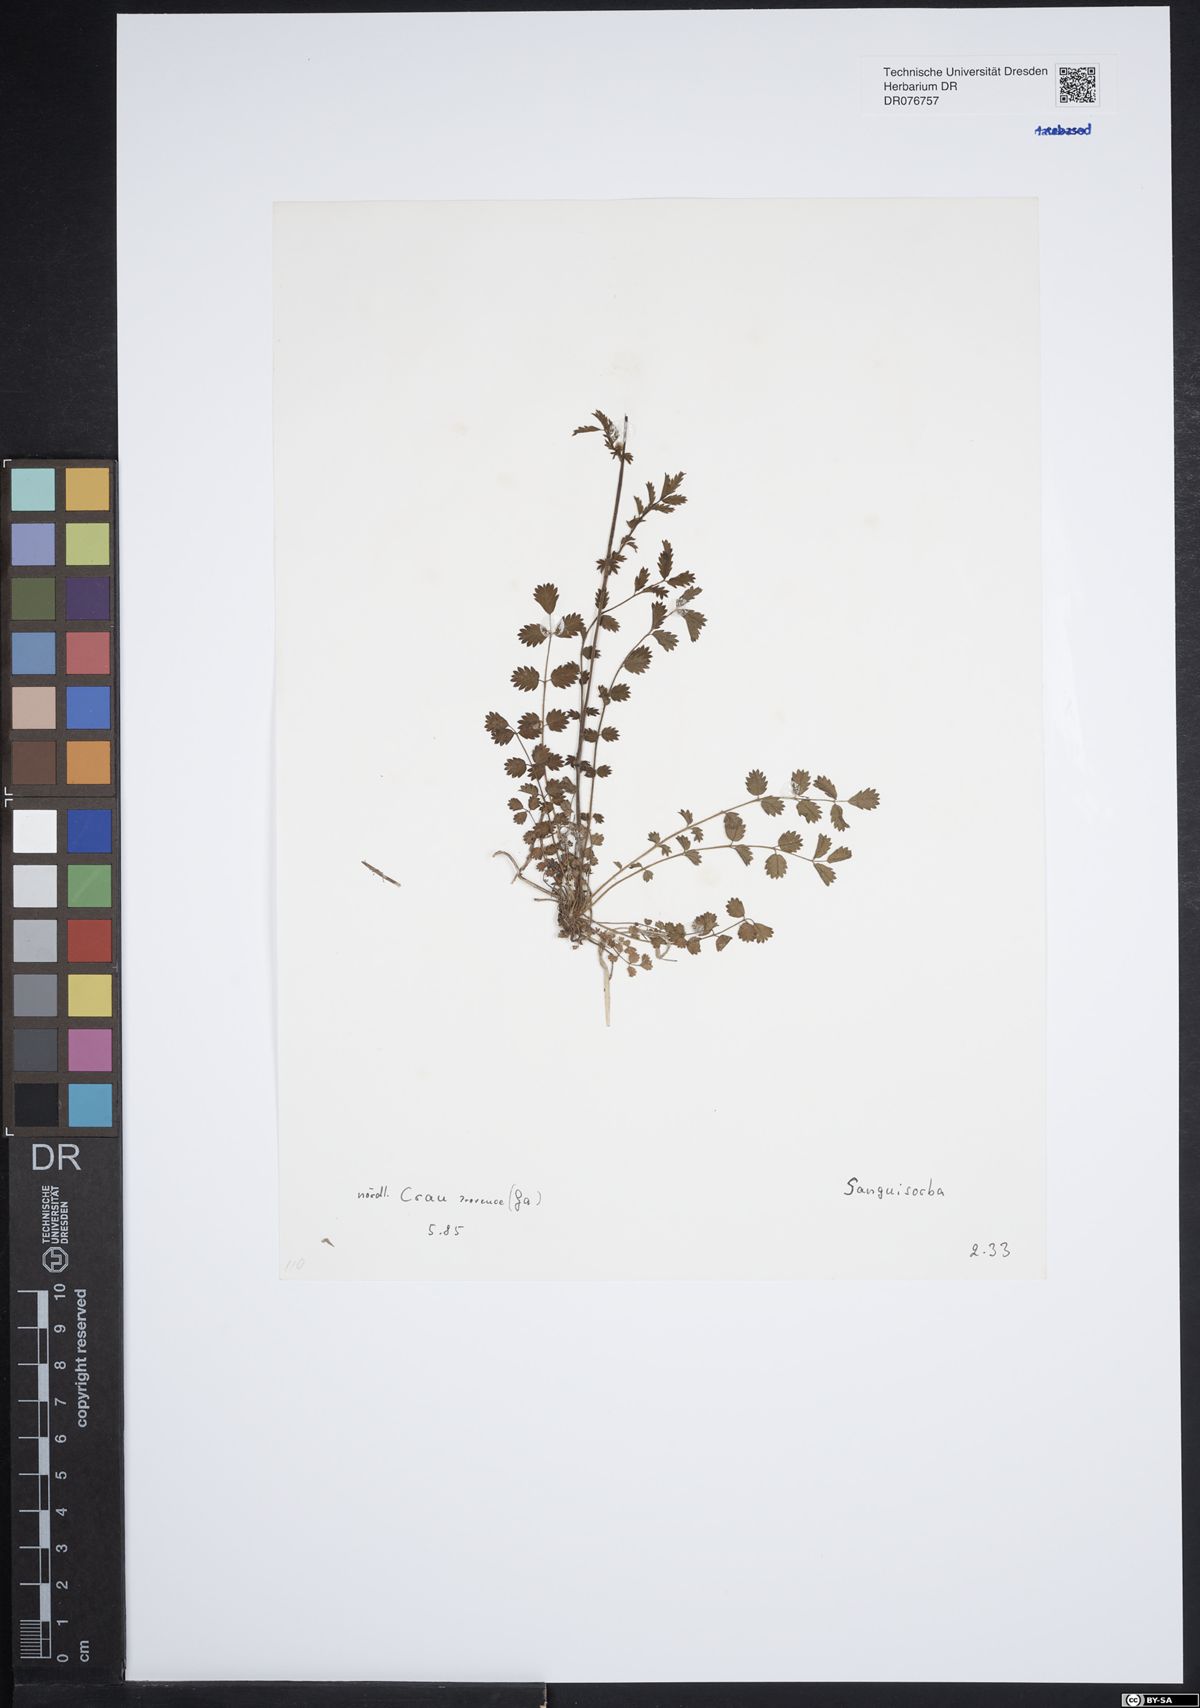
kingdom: Plantae
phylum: Tracheophyta
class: Magnoliopsida
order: Rosales
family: Rosaceae
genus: Sanguisorba
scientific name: Sanguisorba
